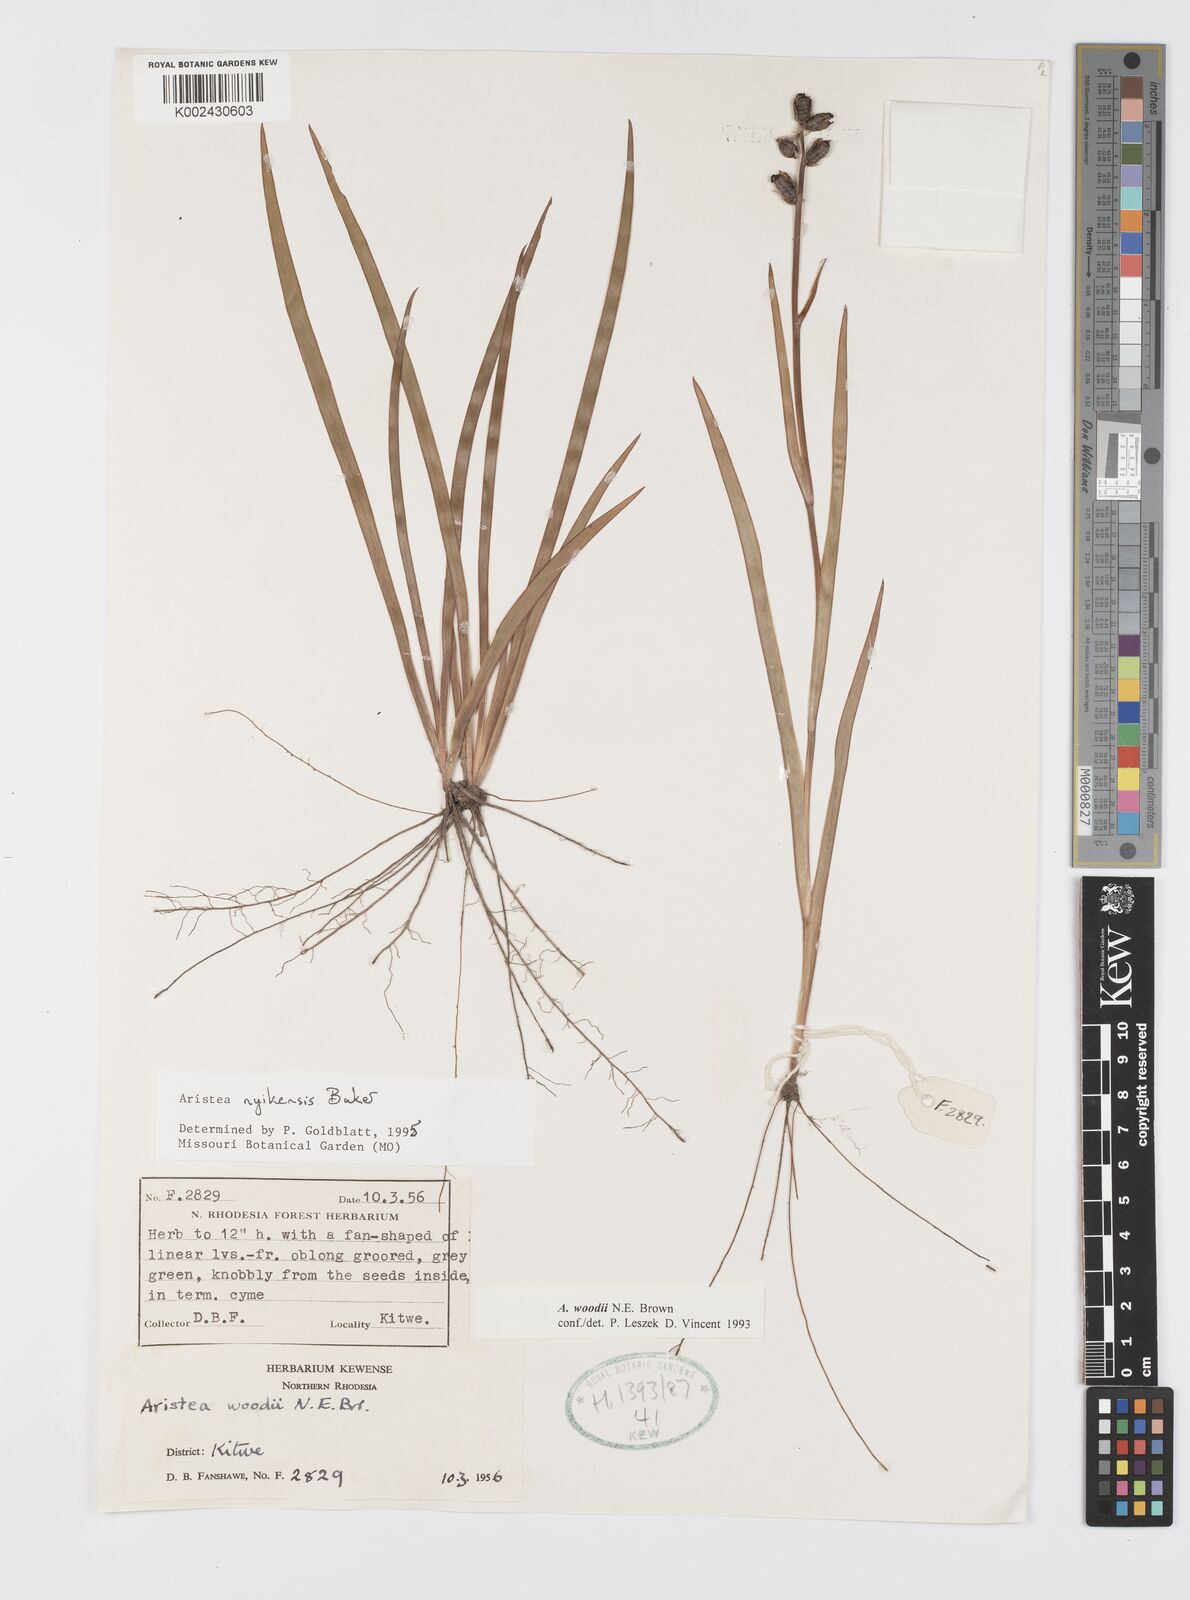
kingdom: Plantae
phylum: Tracheophyta
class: Liliopsida
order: Asparagales
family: Iridaceae
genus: Aristea
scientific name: Aristea nyikensis
